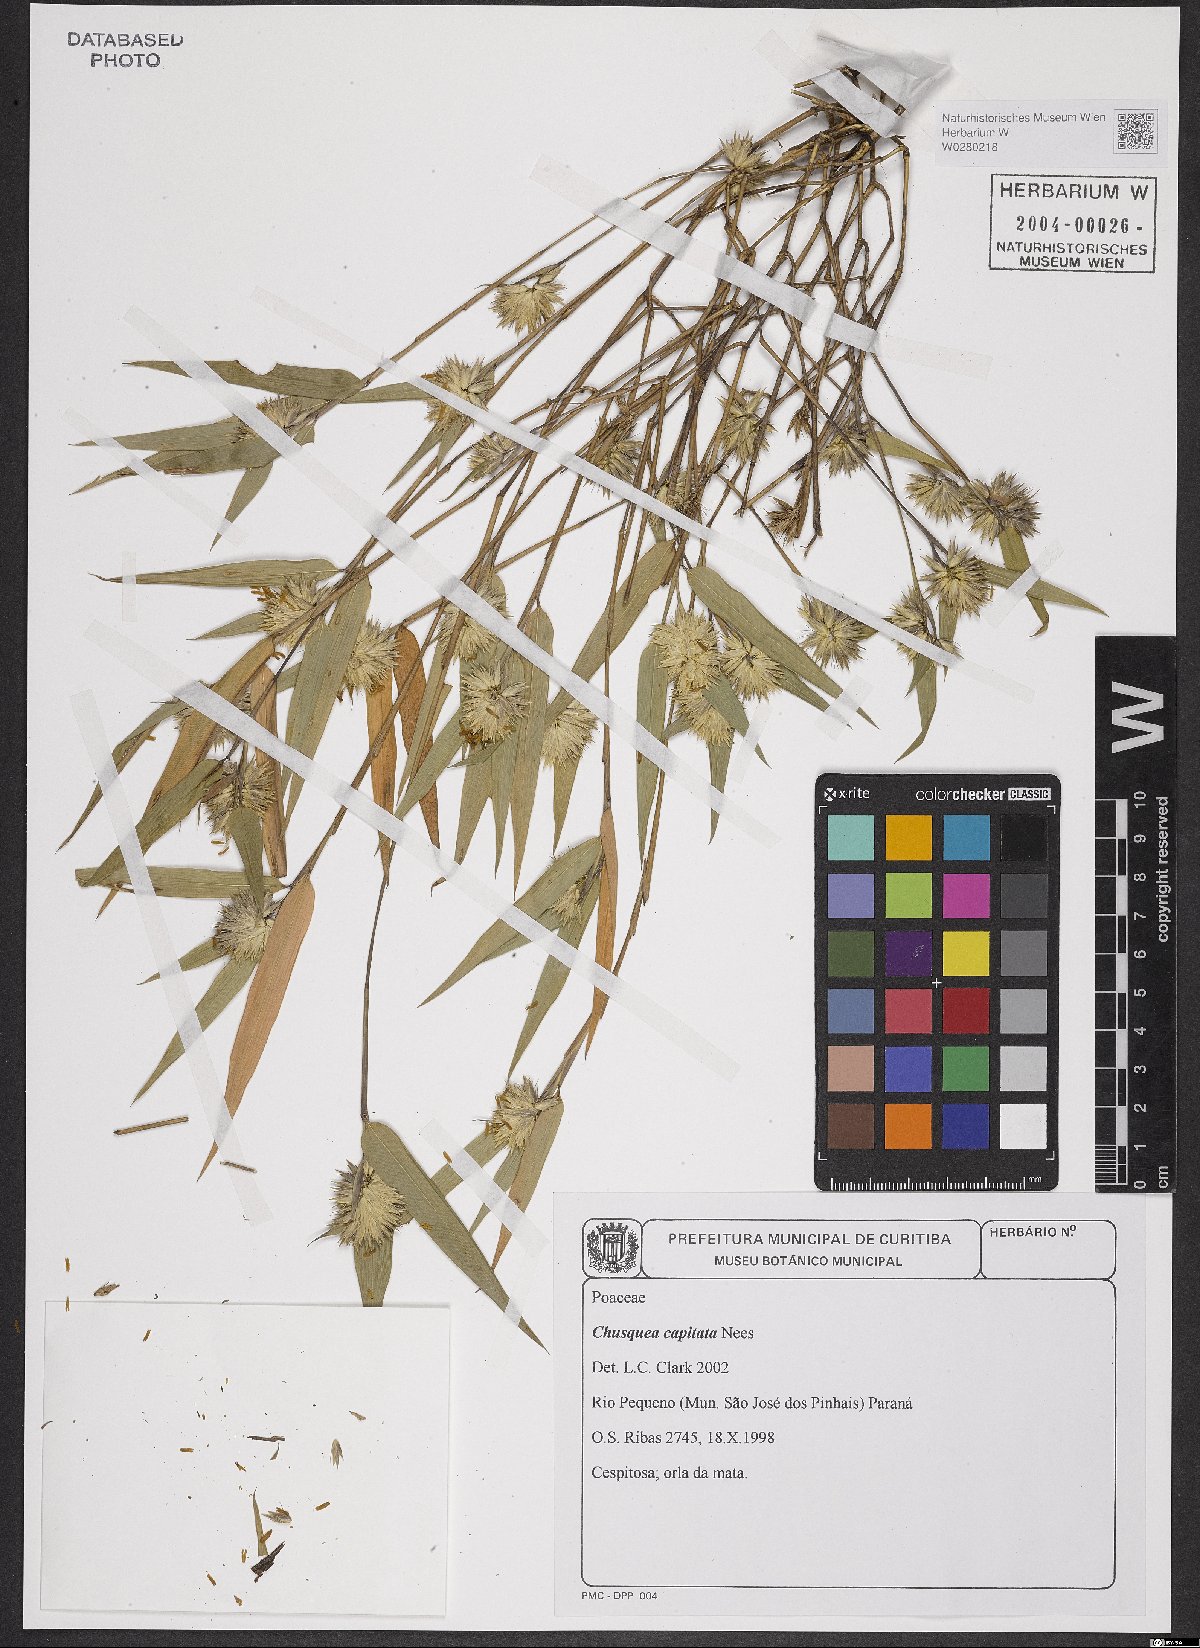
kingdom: Plantae
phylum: Tracheophyta
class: Liliopsida
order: Poales
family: Poaceae
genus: Chusquea
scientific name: Chusquea capitata
